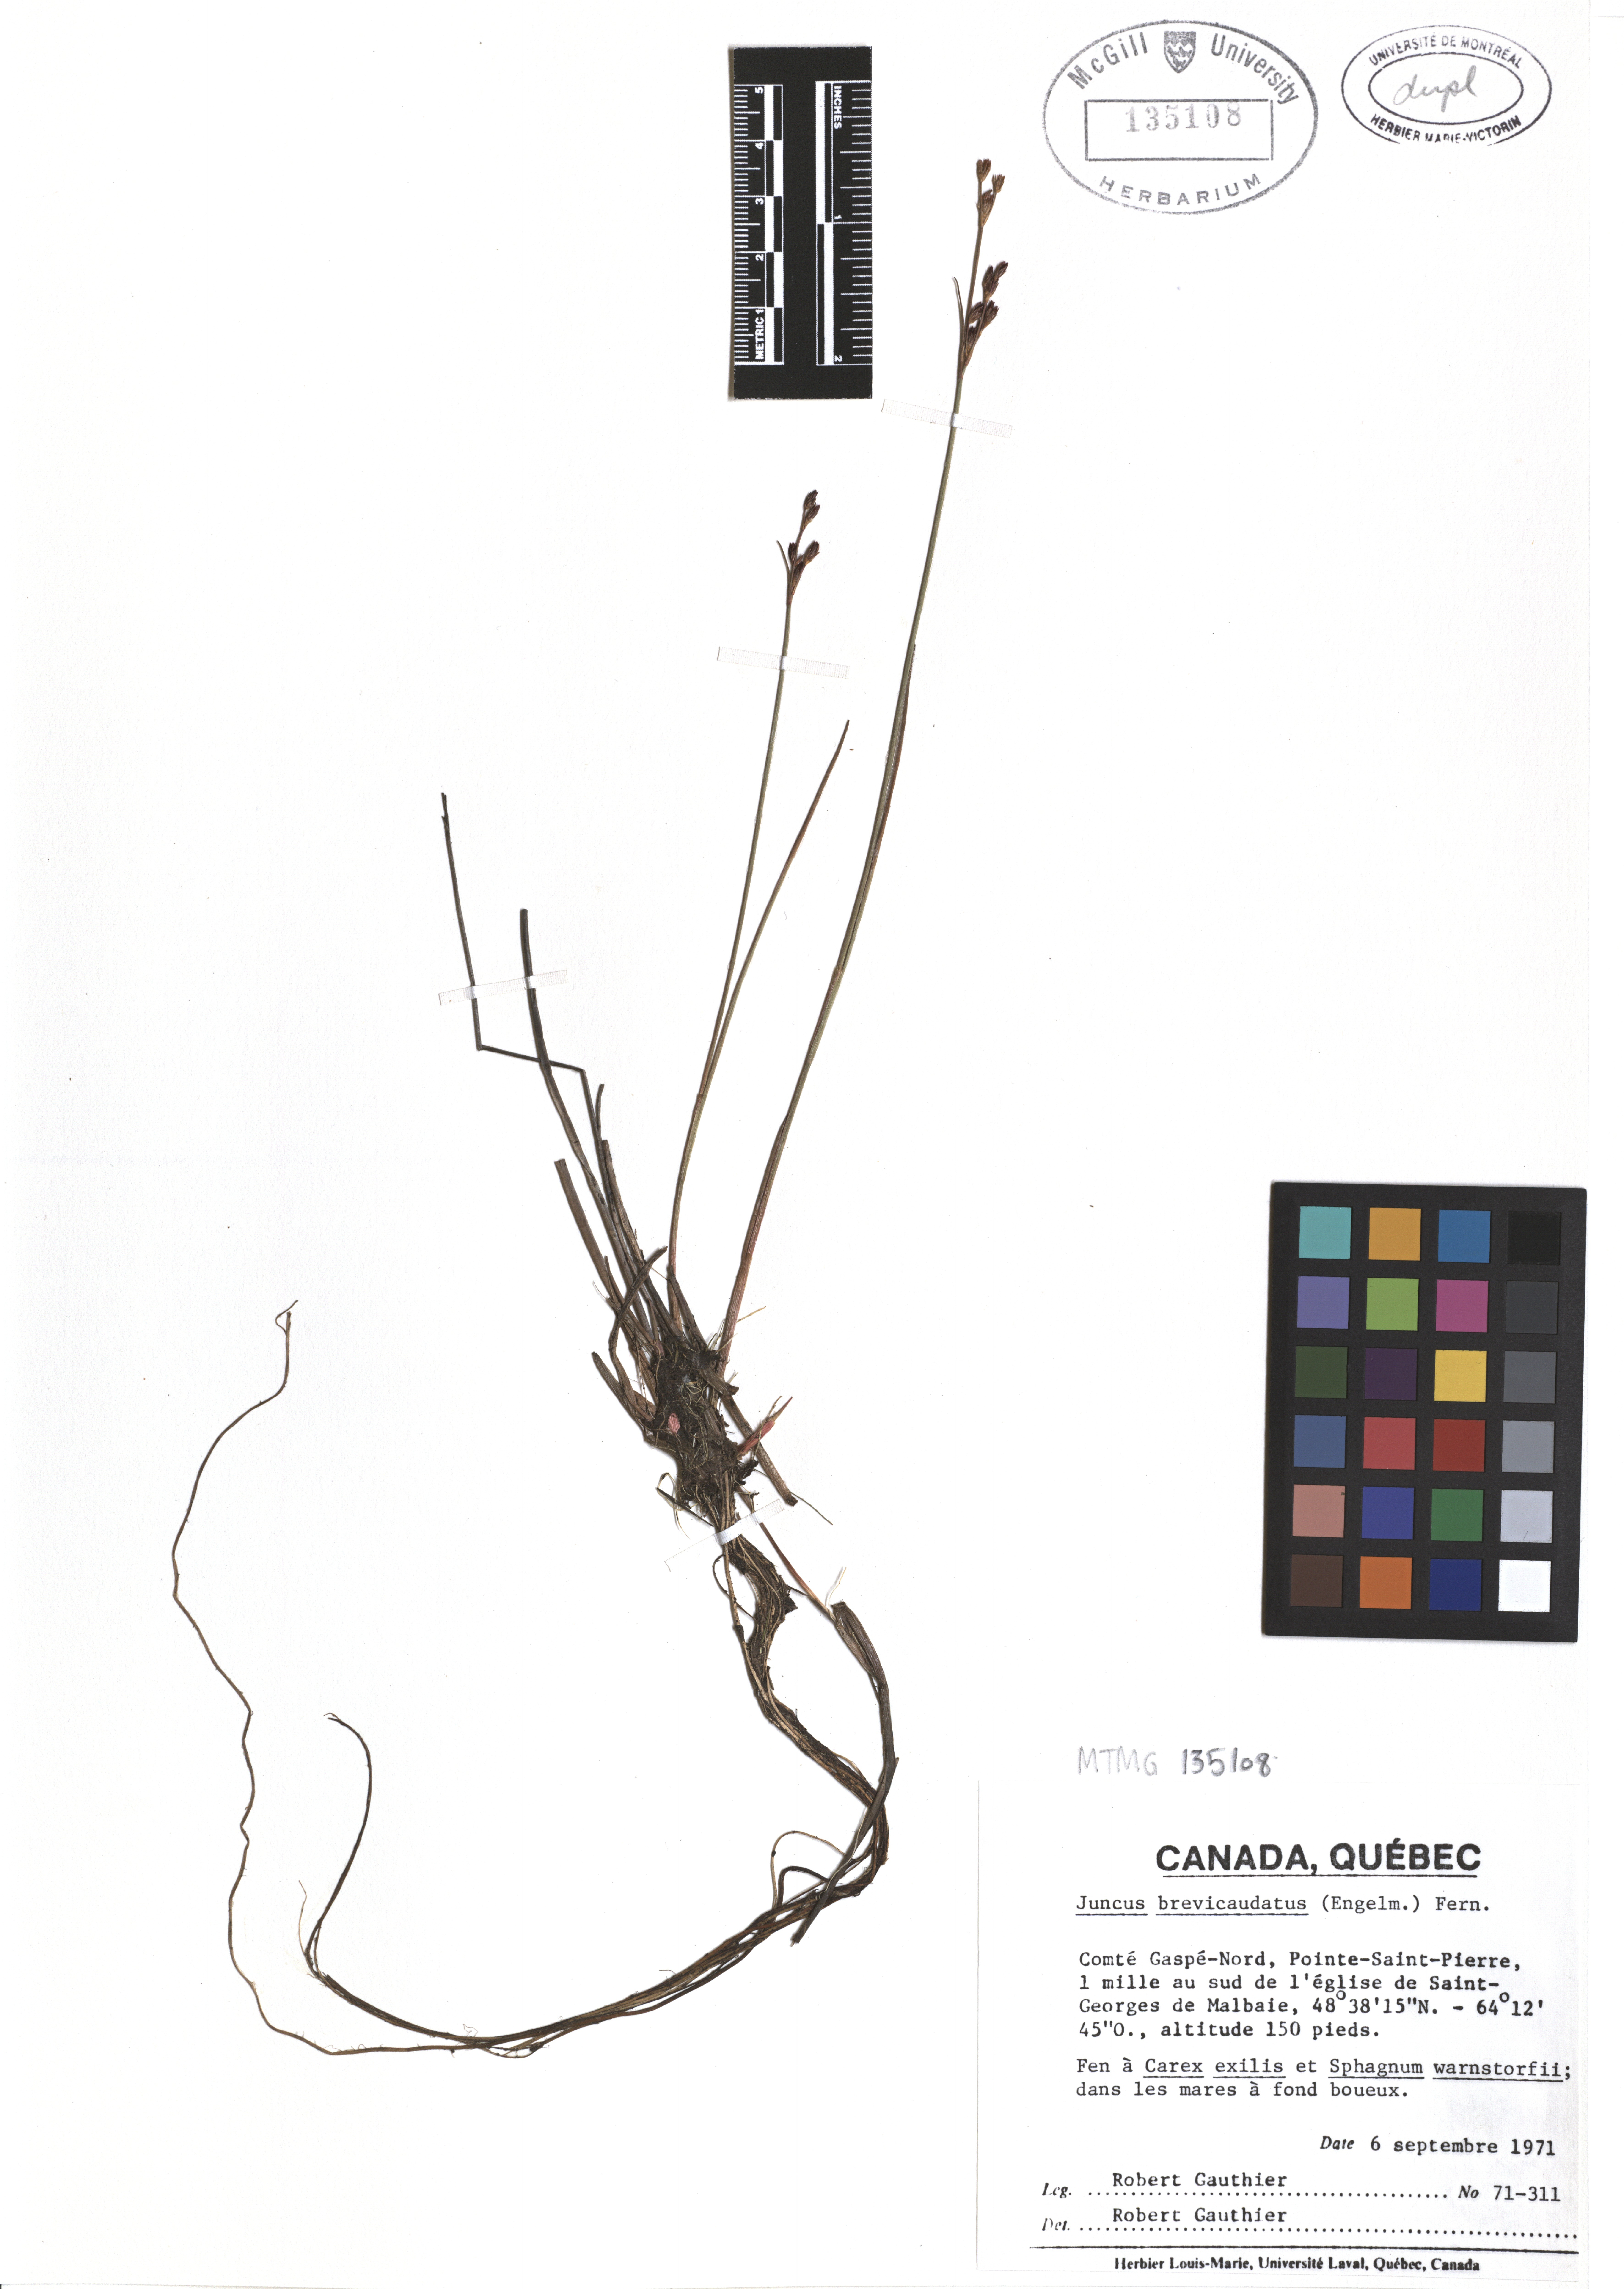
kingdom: Plantae
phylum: Tracheophyta
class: Liliopsida
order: Poales
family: Juncaceae
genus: Juncus
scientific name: Juncus brevicaudatus
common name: Narrow-panicle rush
